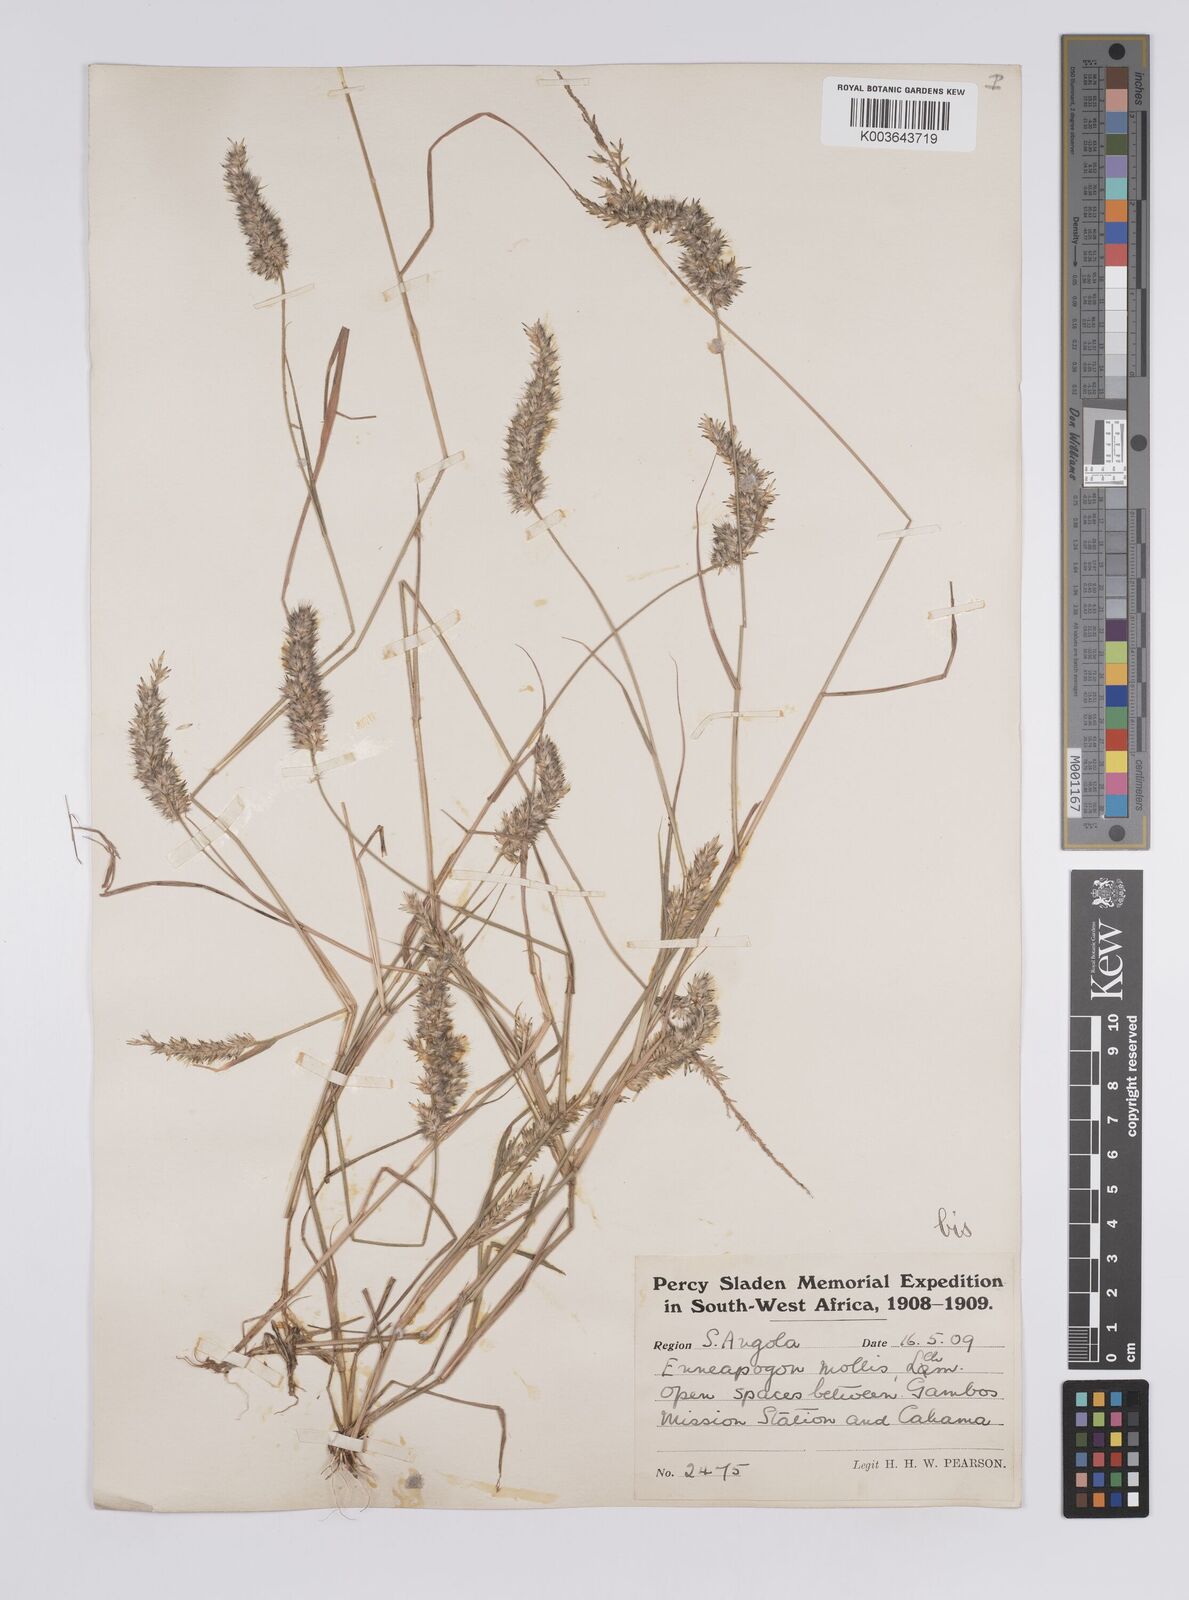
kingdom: Plantae
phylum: Tracheophyta
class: Liliopsida
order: Poales
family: Poaceae
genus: Enneapogon
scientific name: Enneapogon cenchroides
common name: Soft feather pappusgrass
